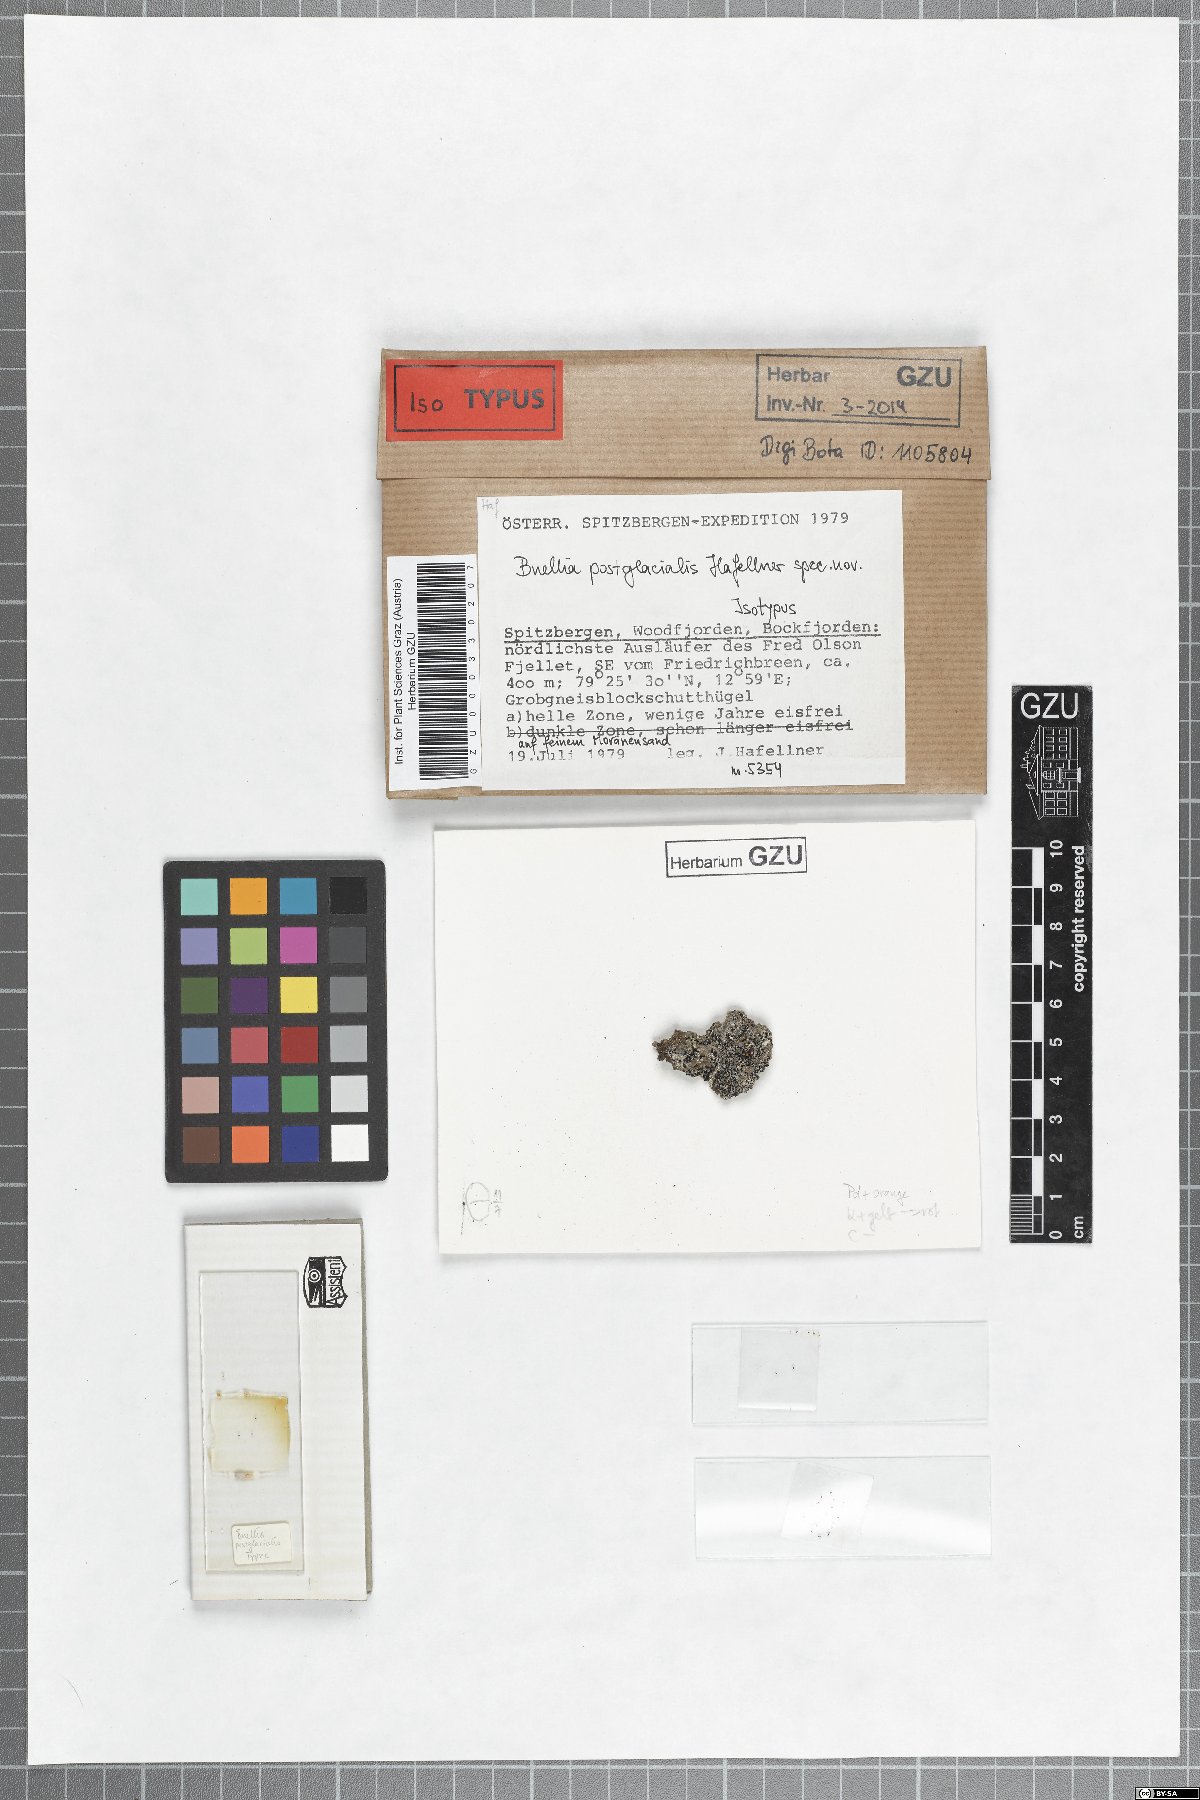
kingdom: Fungi
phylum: Ascomycota
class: Lecanoromycetes
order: Caliciales
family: Caliciaceae
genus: Buellia
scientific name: Buellia postglacialis
